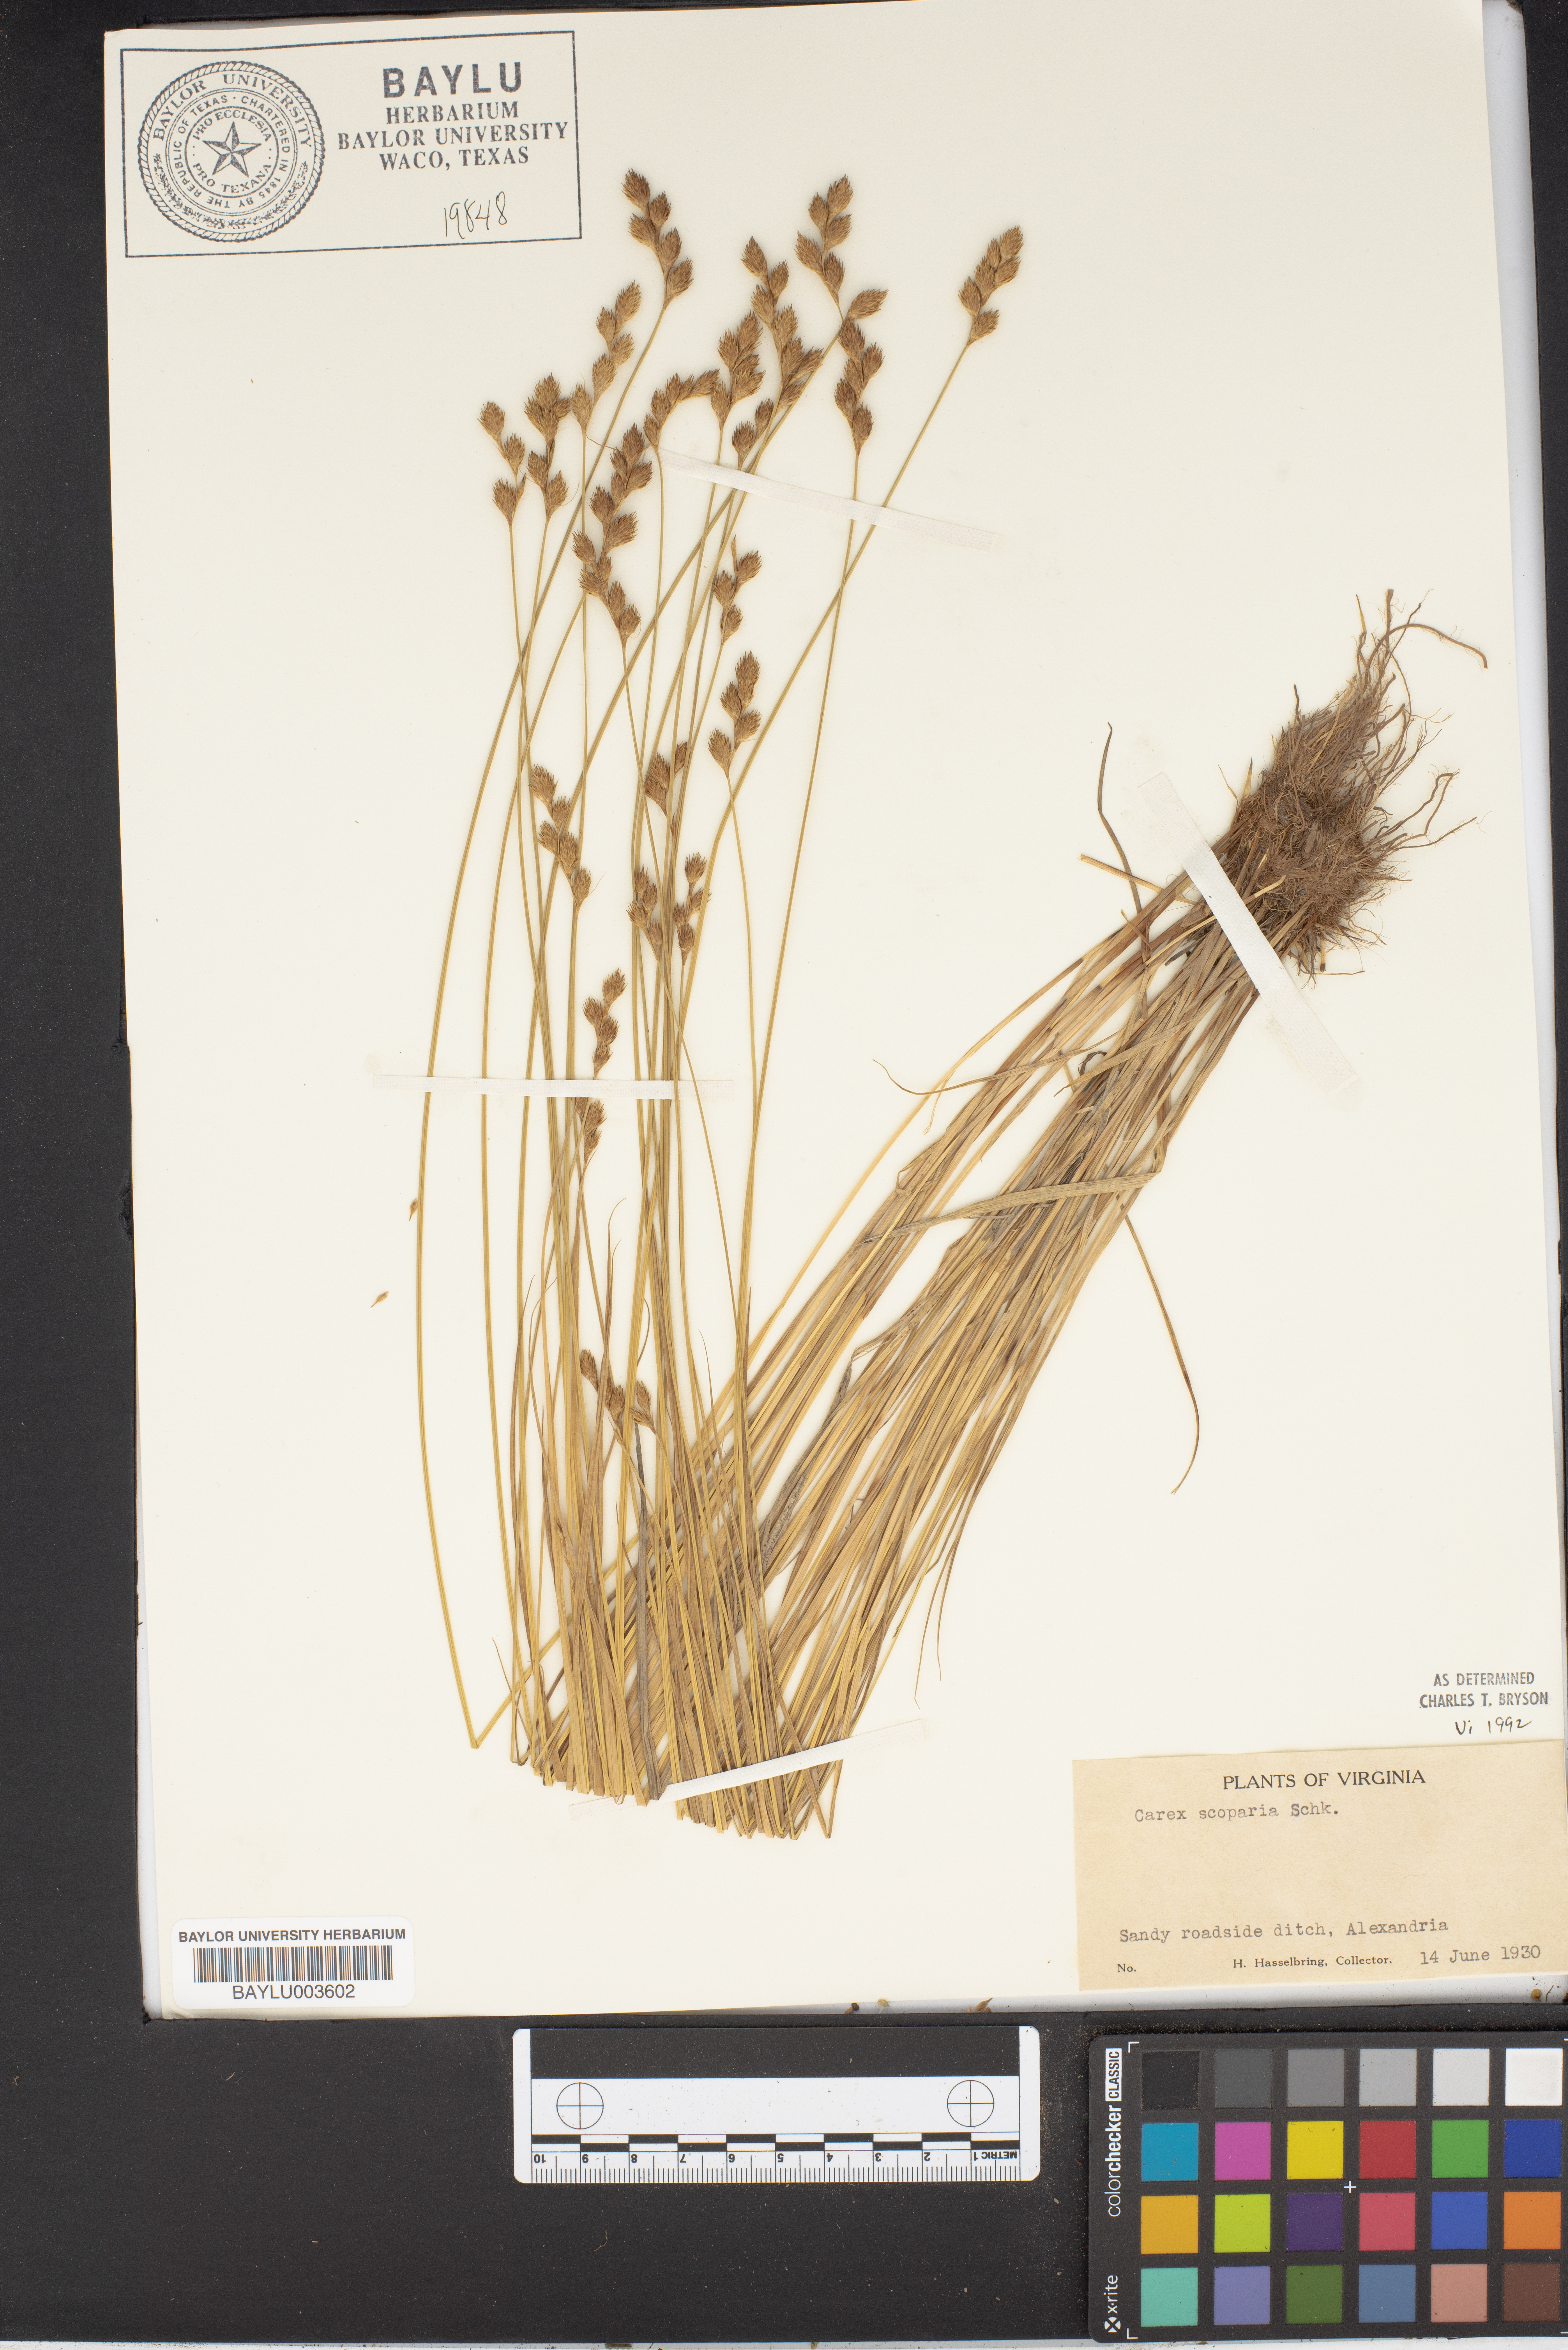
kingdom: Plantae
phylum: Tracheophyta
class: Liliopsida
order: Poales
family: Cyperaceae
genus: Carex
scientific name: Carex scoparia
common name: Broom sedge
